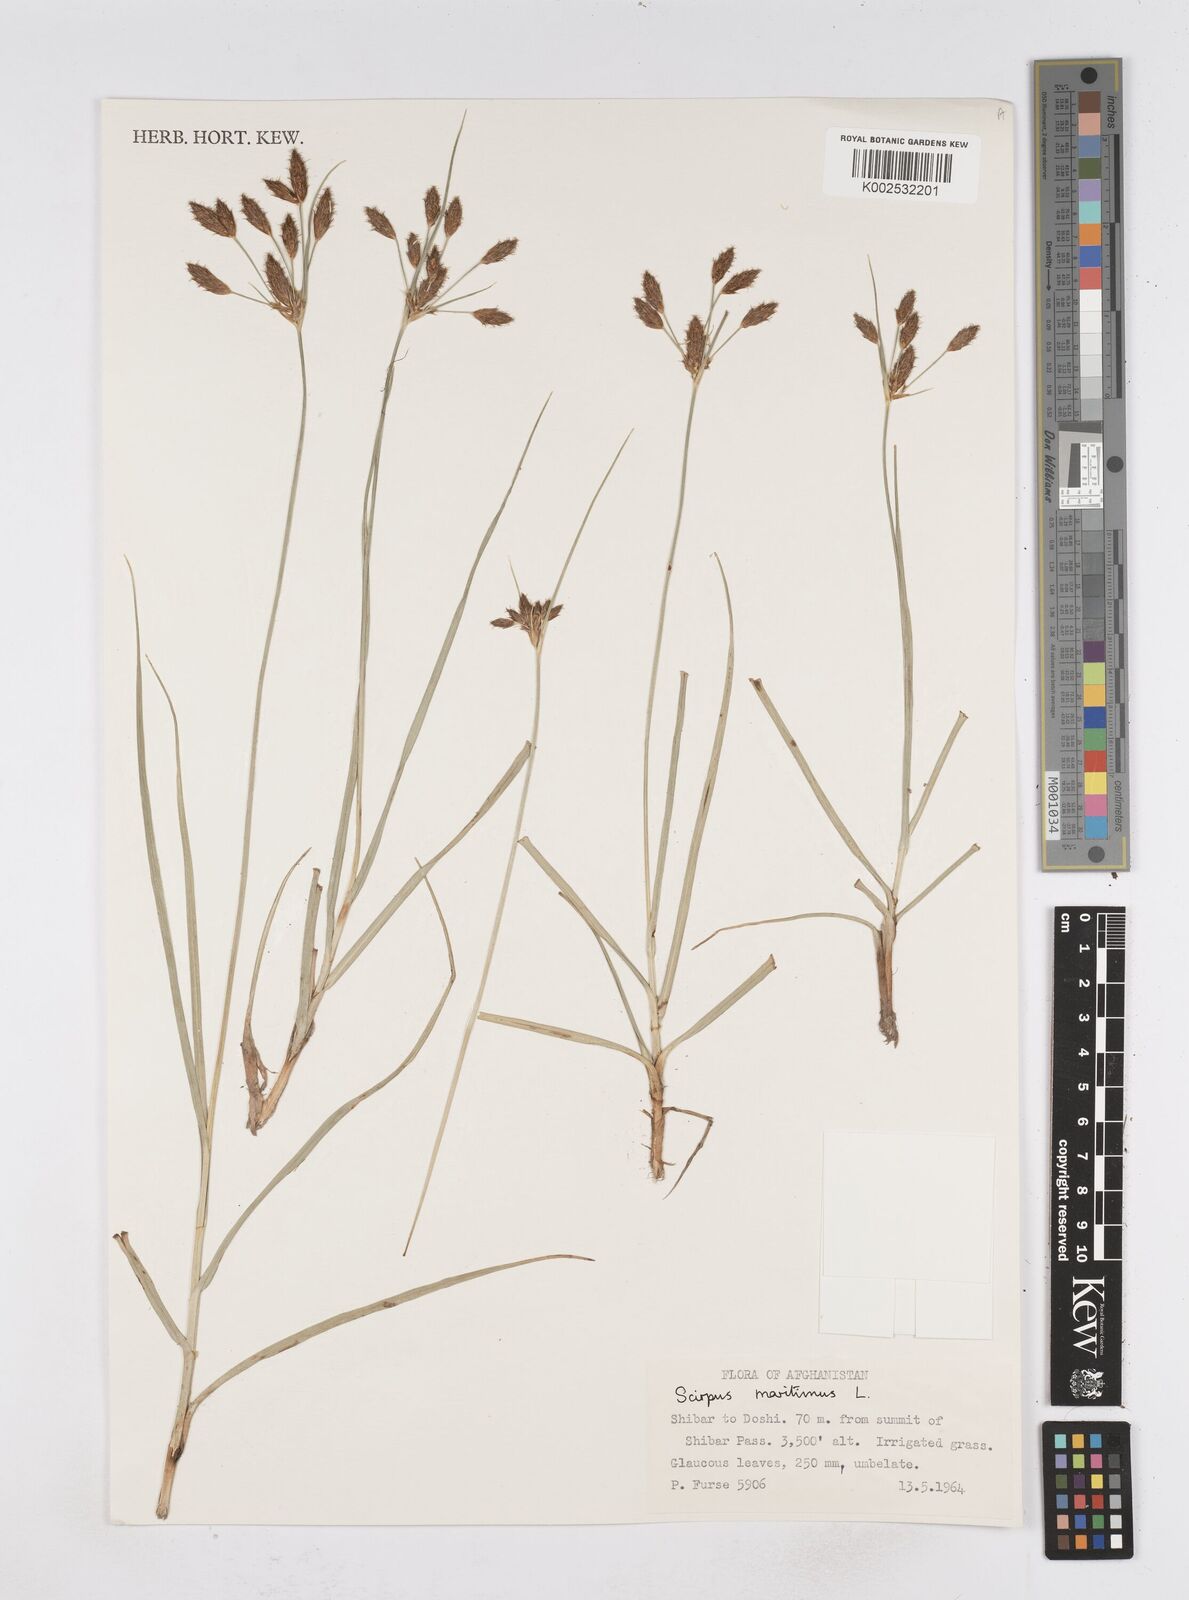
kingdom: Plantae
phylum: Tracheophyta
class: Liliopsida
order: Poales
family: Cyperaceae
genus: Bolboschoenus
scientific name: Bolboschoenus maritimus
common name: Sea club-rush
